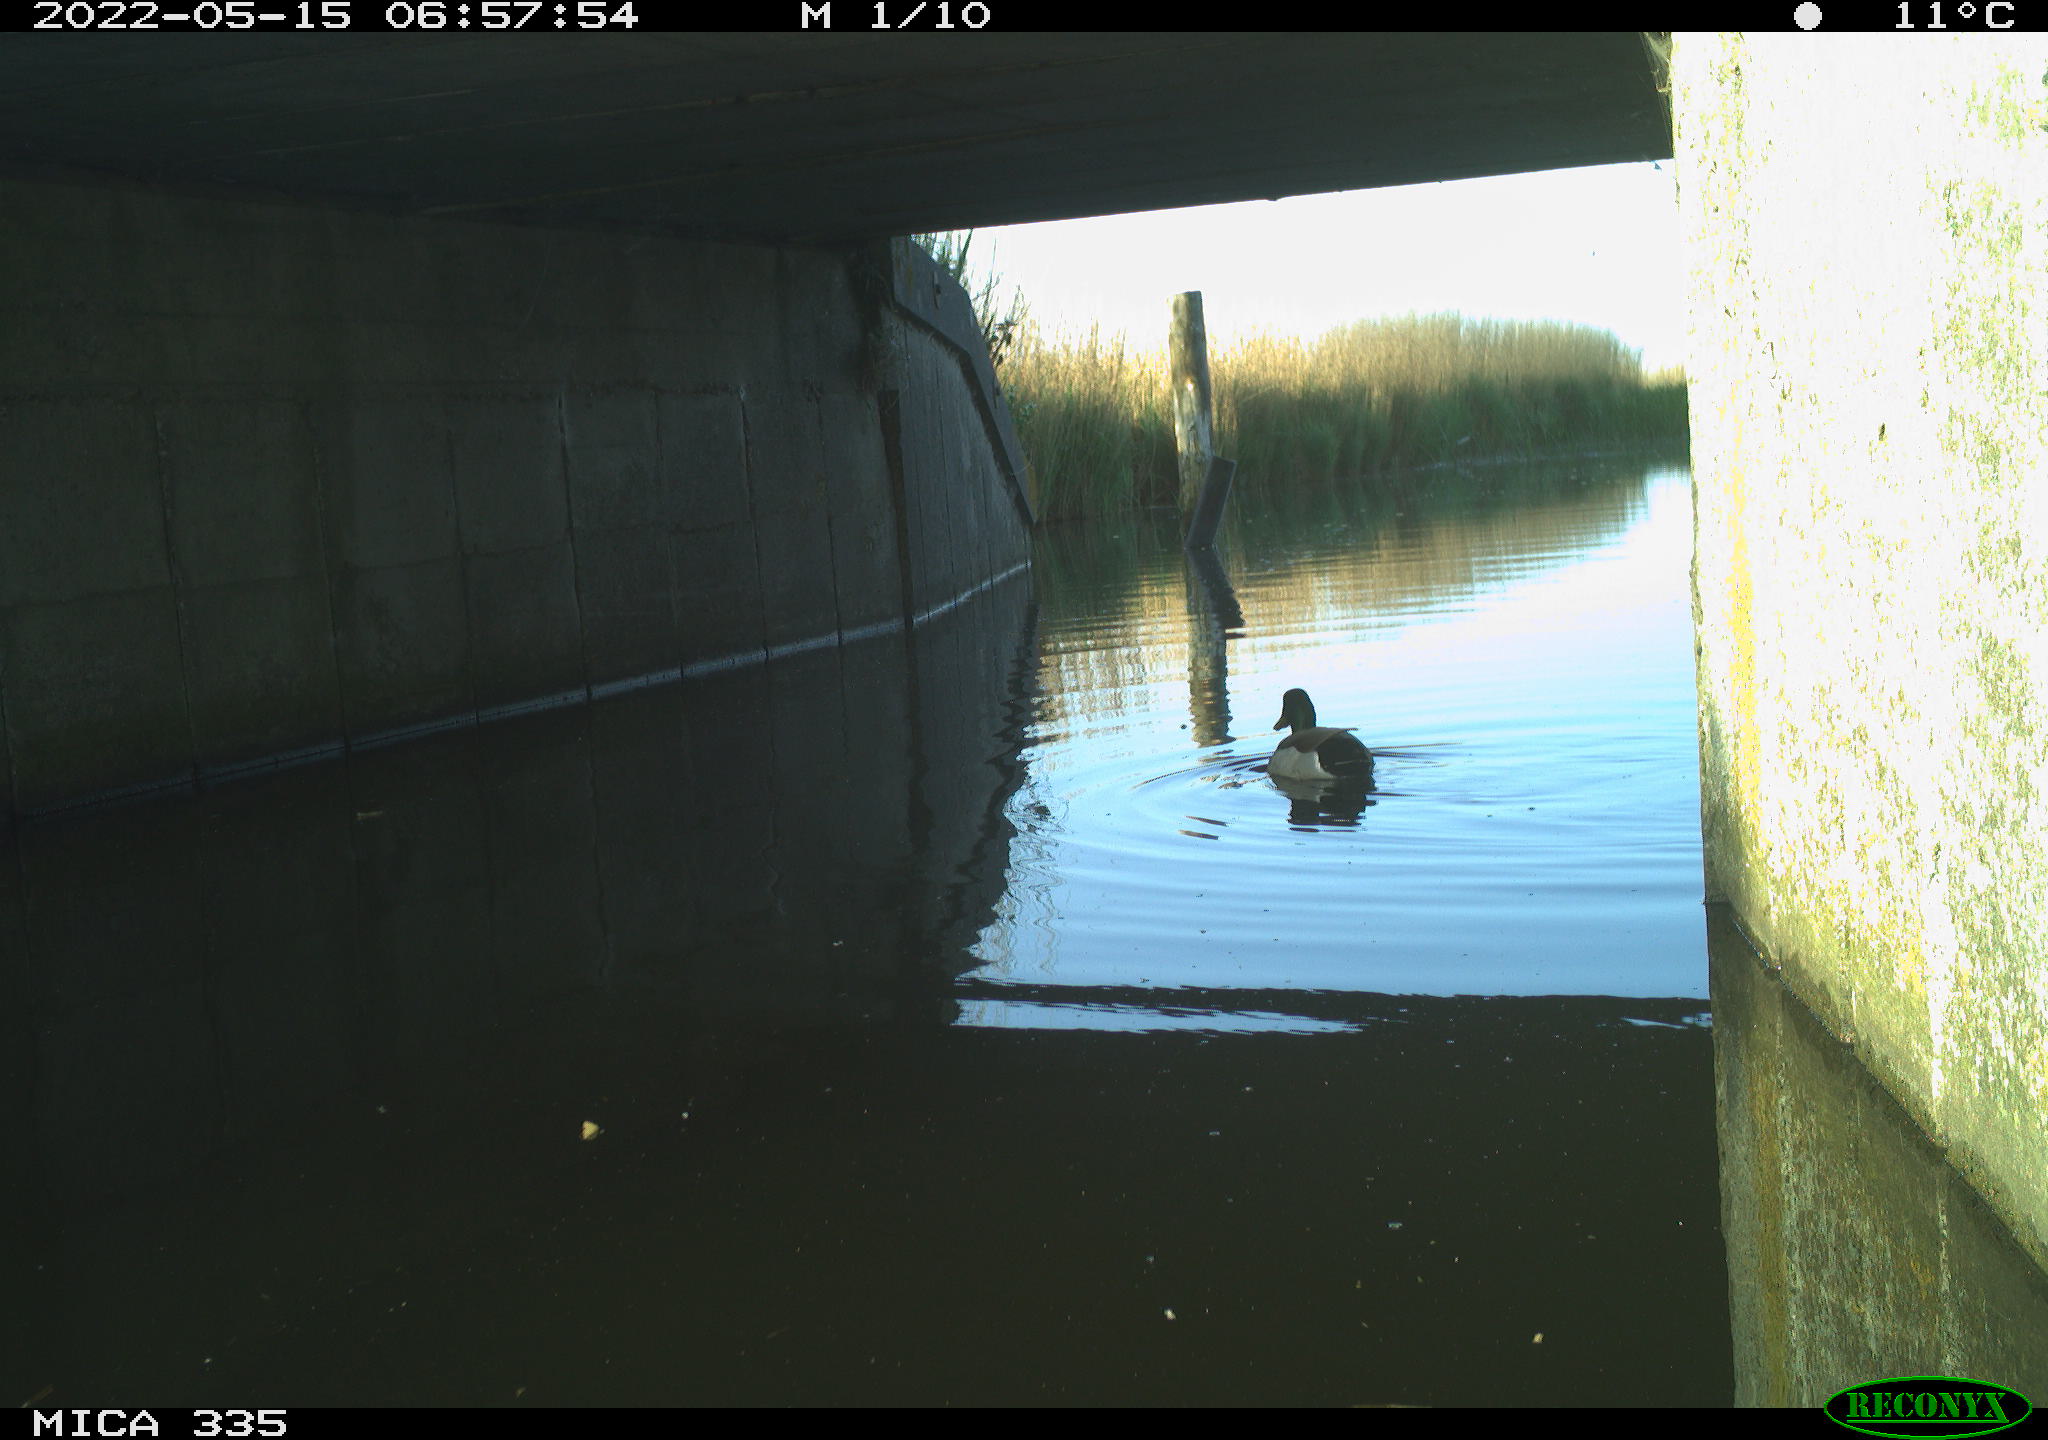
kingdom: Animalia
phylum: Chordata
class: Aves
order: Anseriformes
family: Anatidae
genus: Anas
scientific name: Anas platyrhynchos
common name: Mallard
